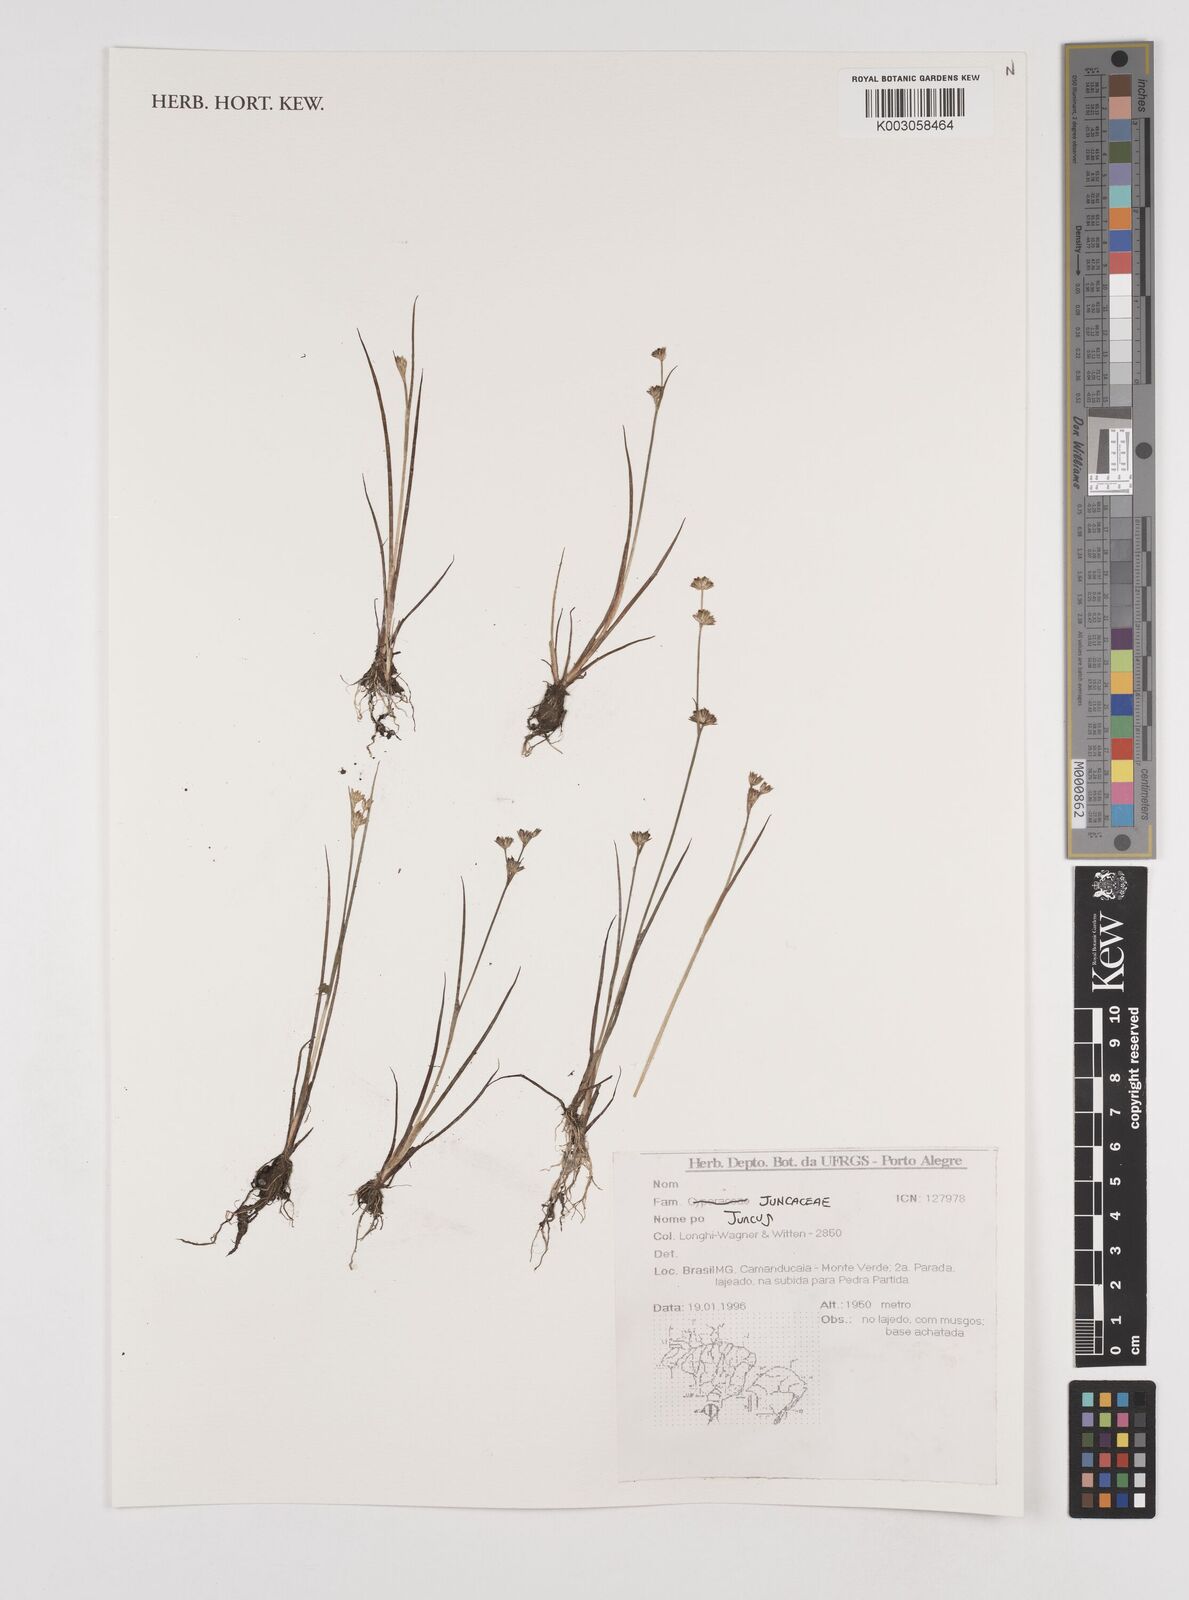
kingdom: Plantae
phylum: Tracheophyta
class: Liliopsida
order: Poales
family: Juncaceae
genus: Juncus
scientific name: Juncus
